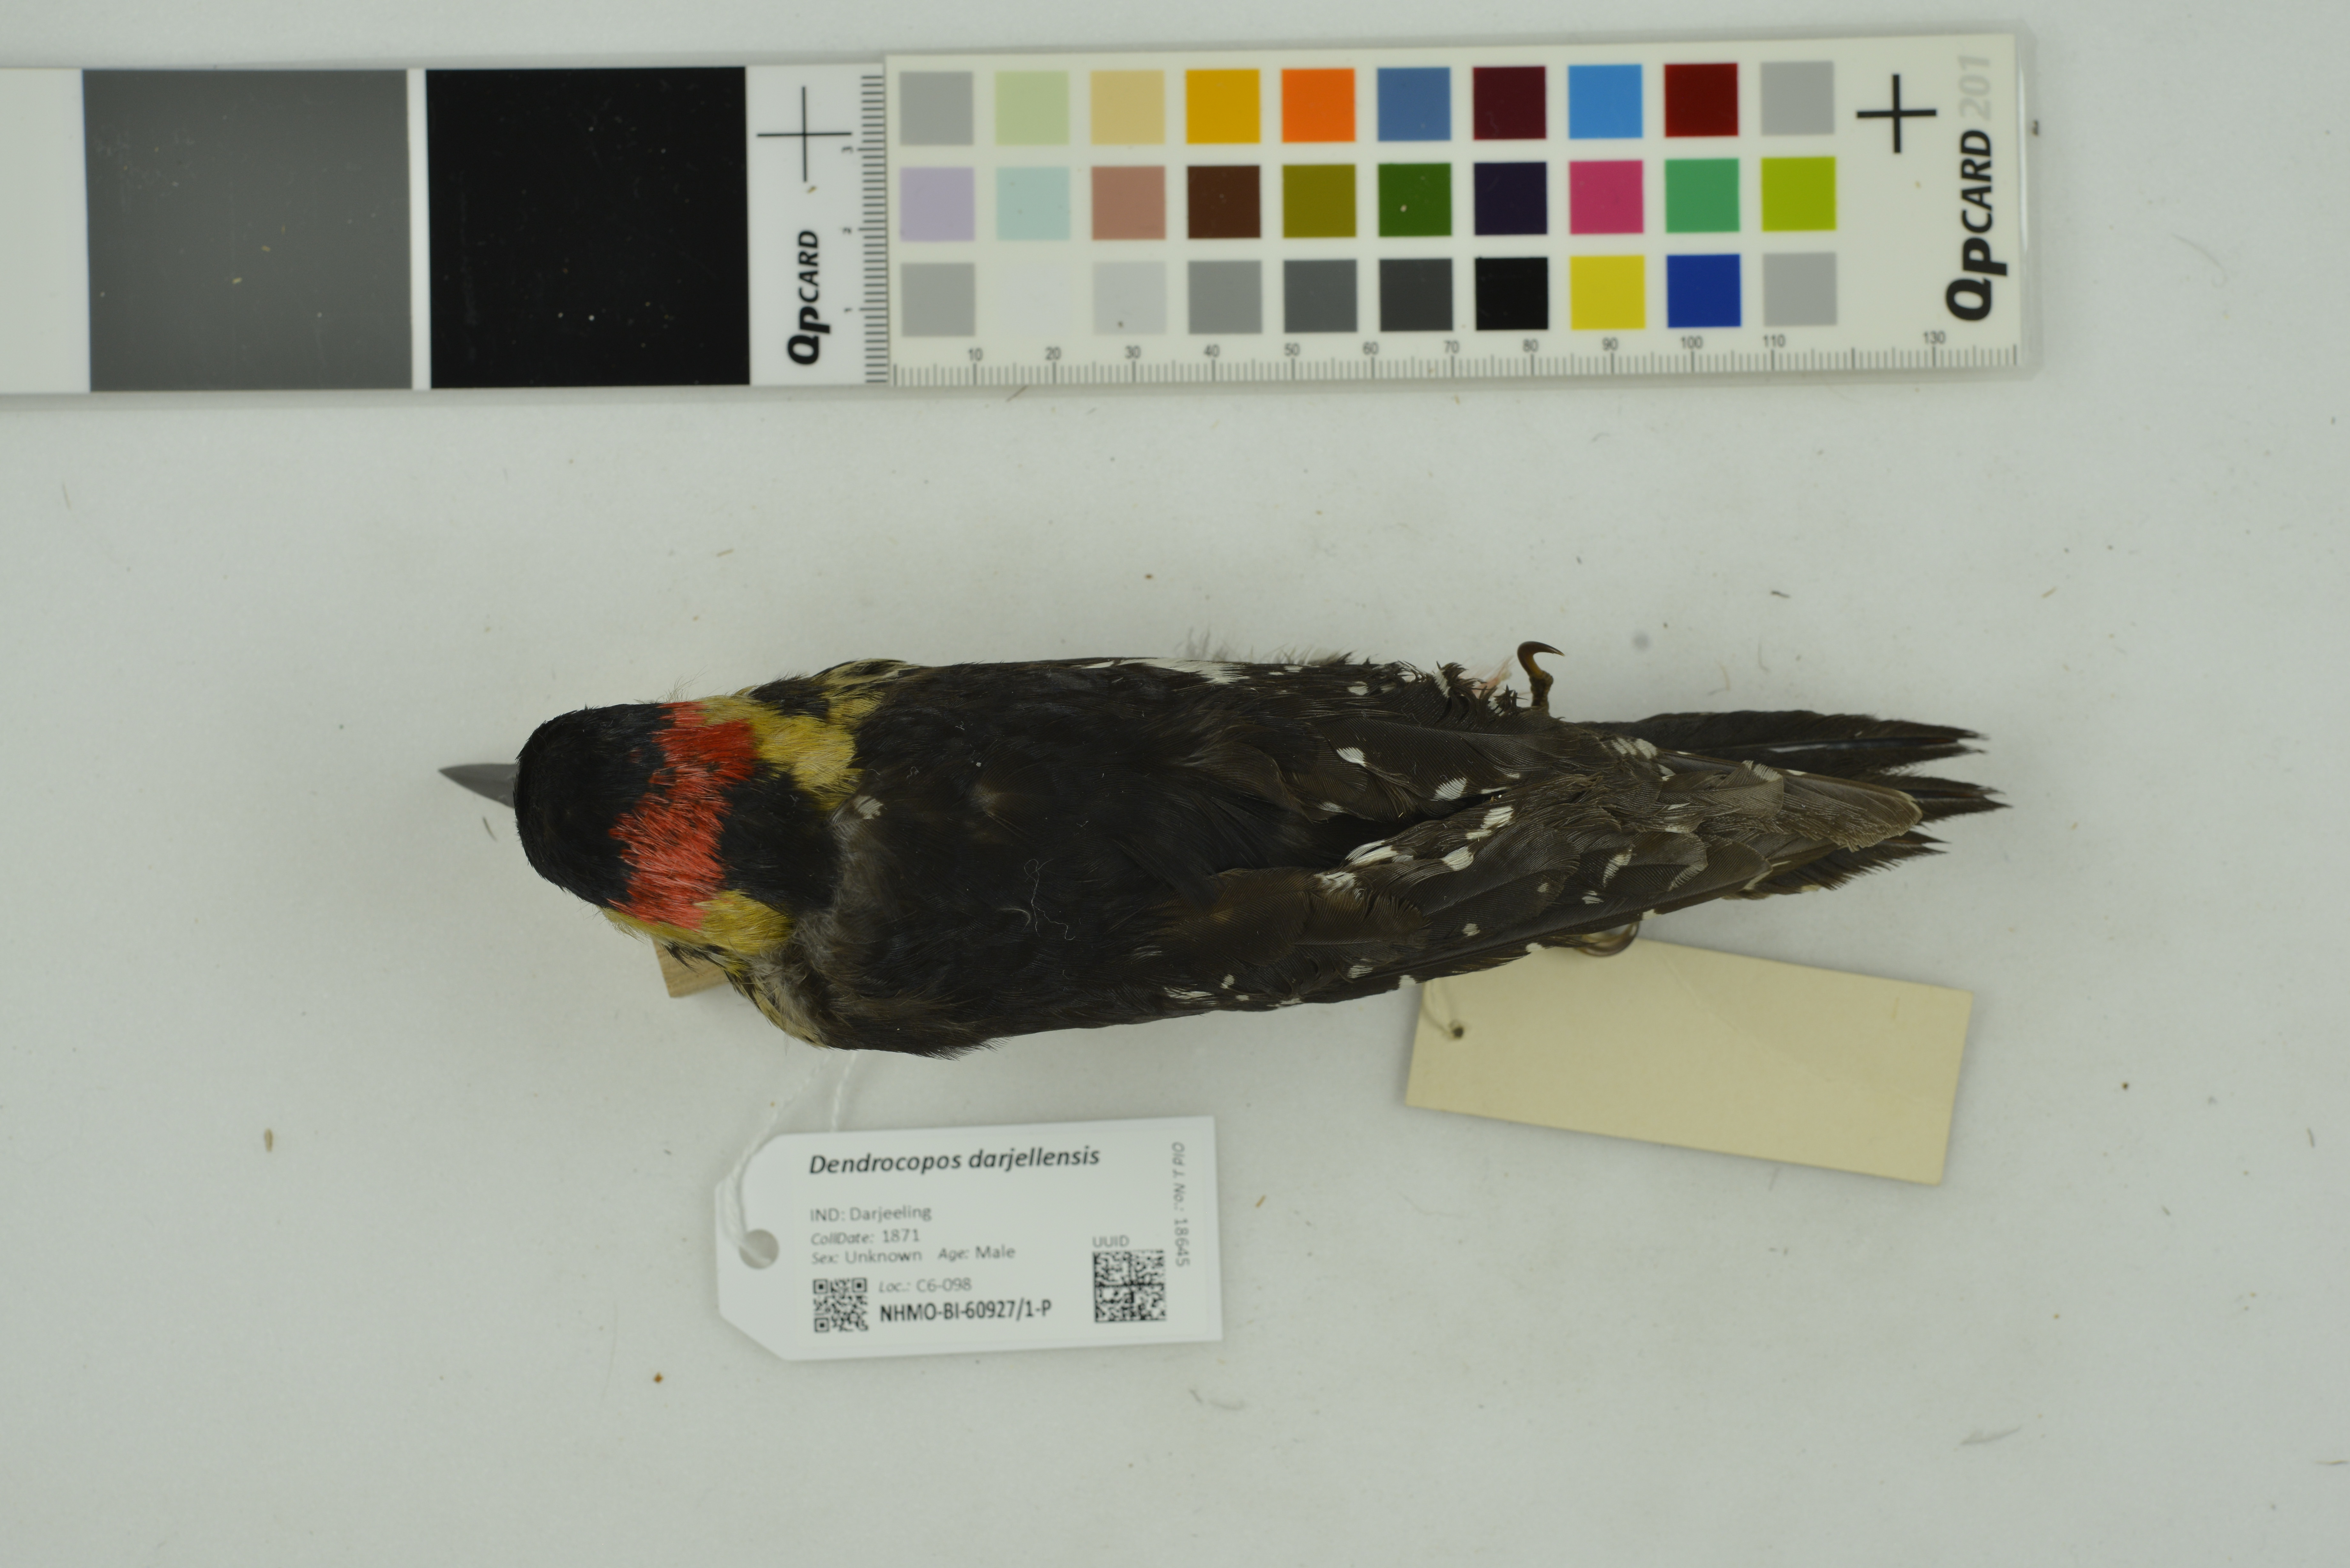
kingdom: Animalia
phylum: Chordata
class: Aves
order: Piciformes
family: Picidae
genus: Dendrocopos
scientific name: Dendrocopos darjellensis
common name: Darjeeling woodpecker
